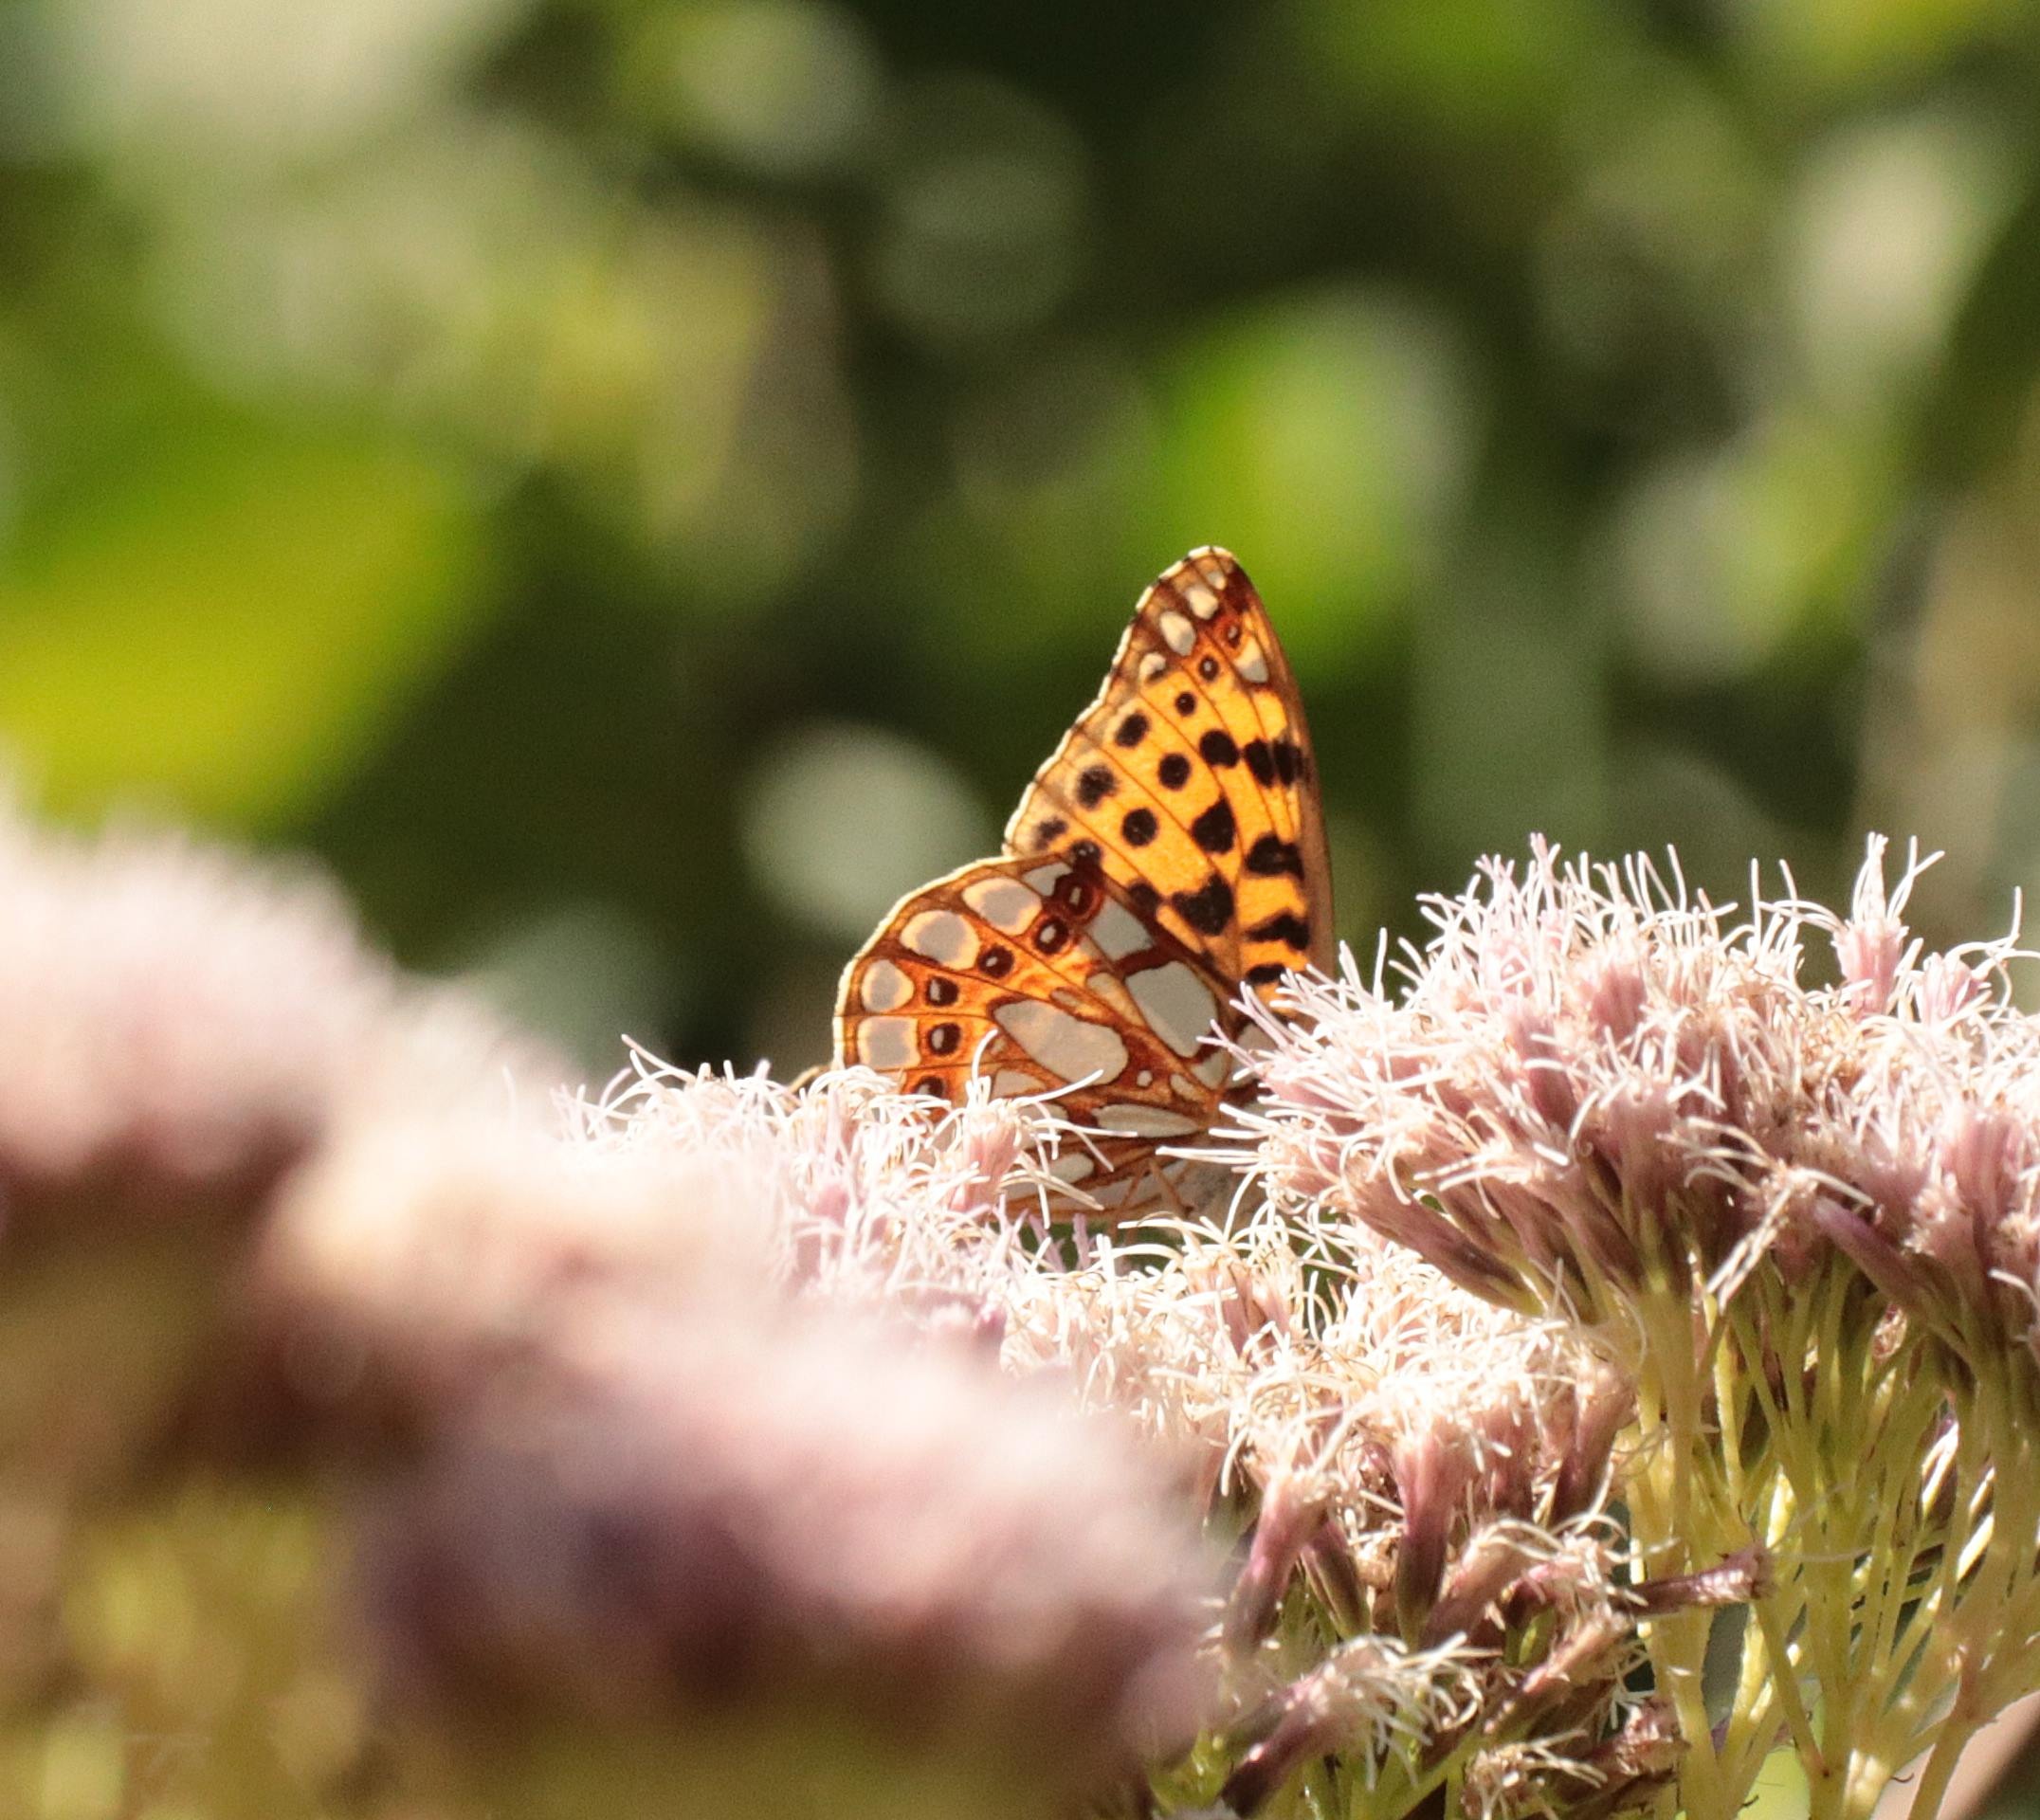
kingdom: Animalia
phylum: Arthropoda
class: Insecta
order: Lepidoptera
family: Nymphalidae
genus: Issoria
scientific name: Issoria lathonia
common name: Storplettet perlemorsommerfugl
